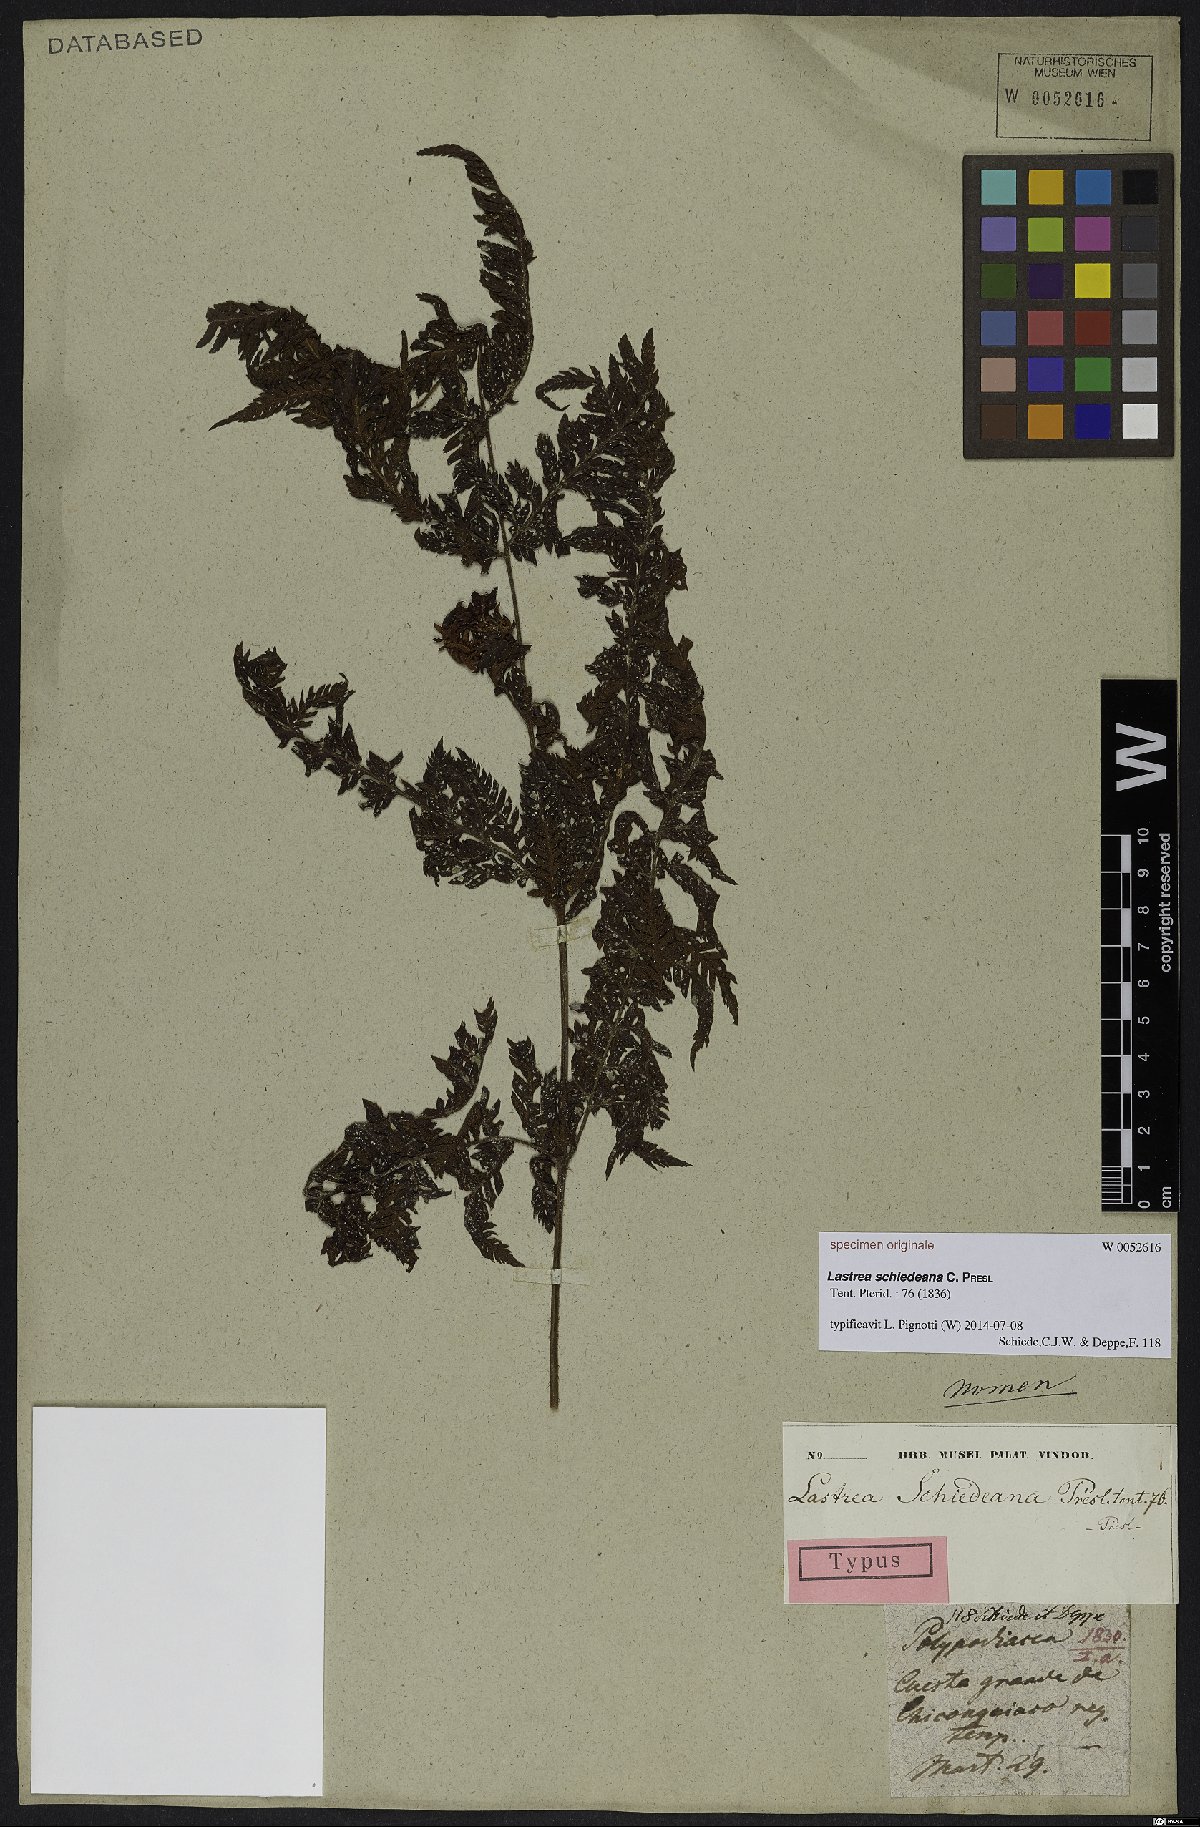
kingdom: Plantae
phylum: Tracheophyta
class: Polypodiopsida
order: Polypodiales
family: Thelypteridaceae
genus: Thelypteris
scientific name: Thelypteris Lastrea schiedeana
